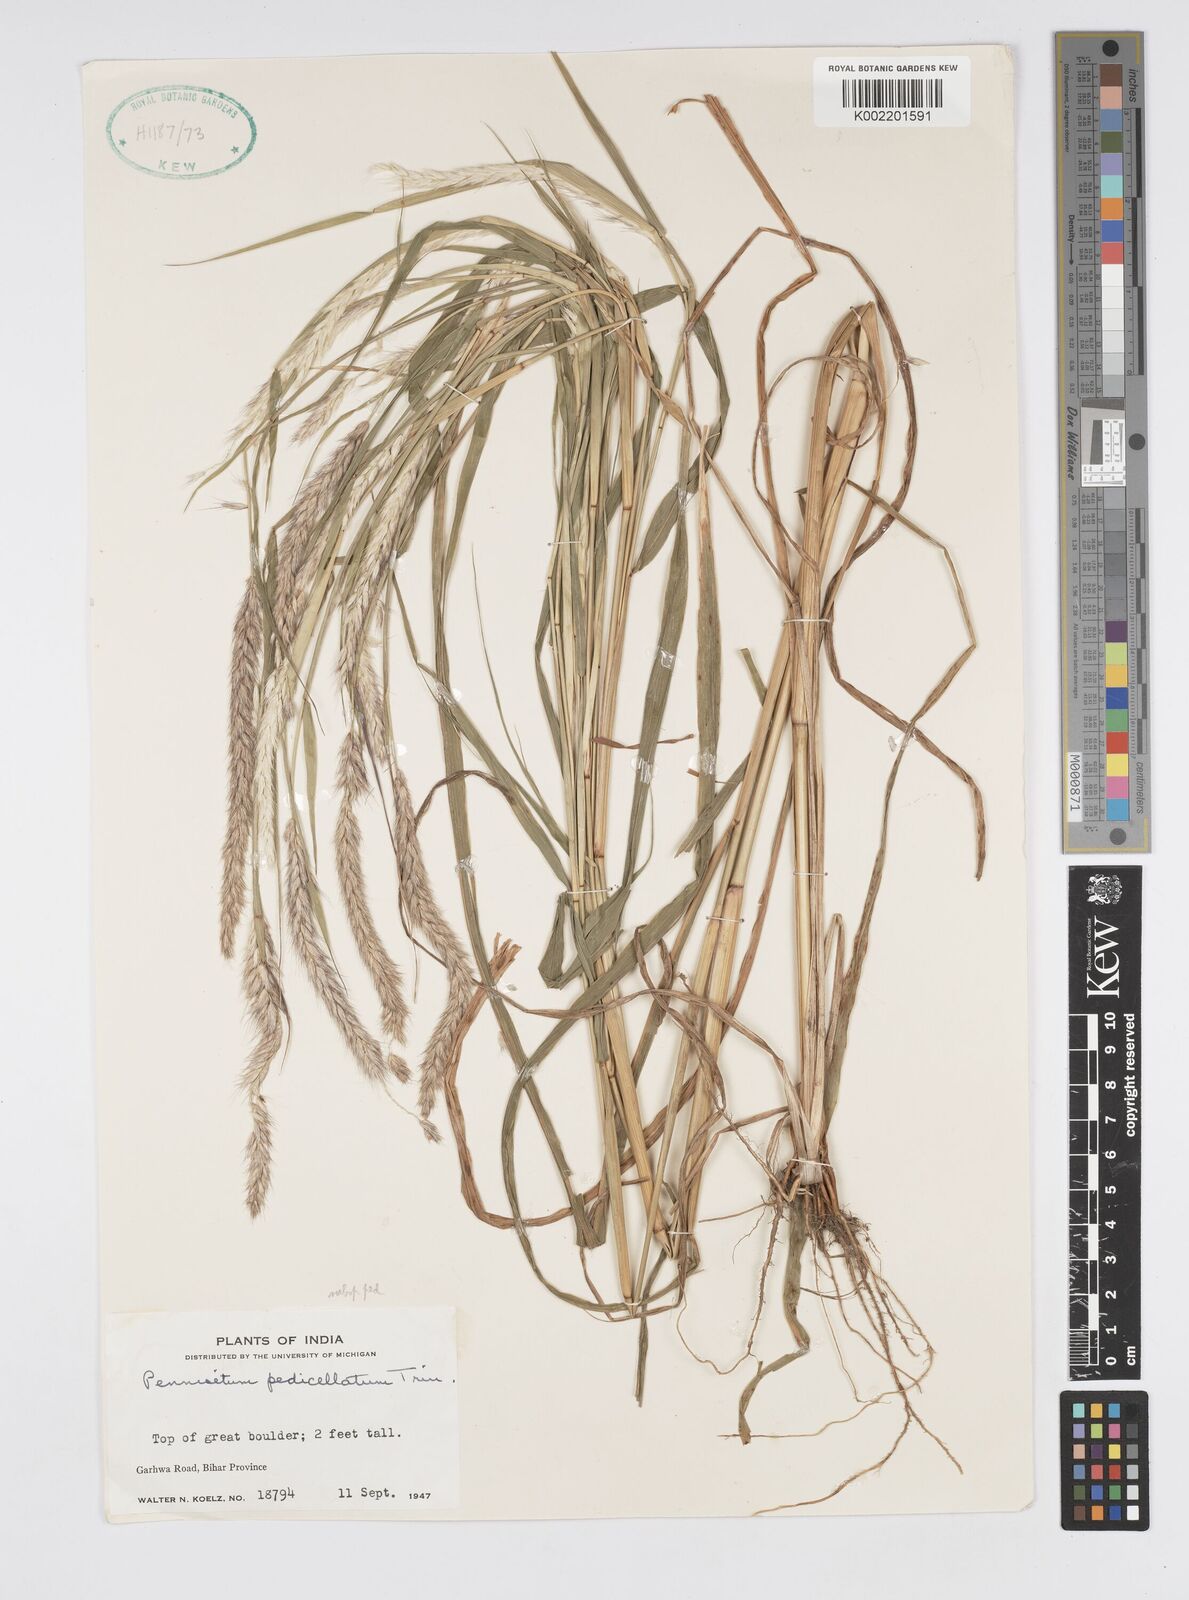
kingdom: Plantae
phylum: Tracheophyta
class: Liliopsida
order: Poales
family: Poaceae
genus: Cenchrus
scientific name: Cenchrus pedicellatus
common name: Hairy fountain grass
